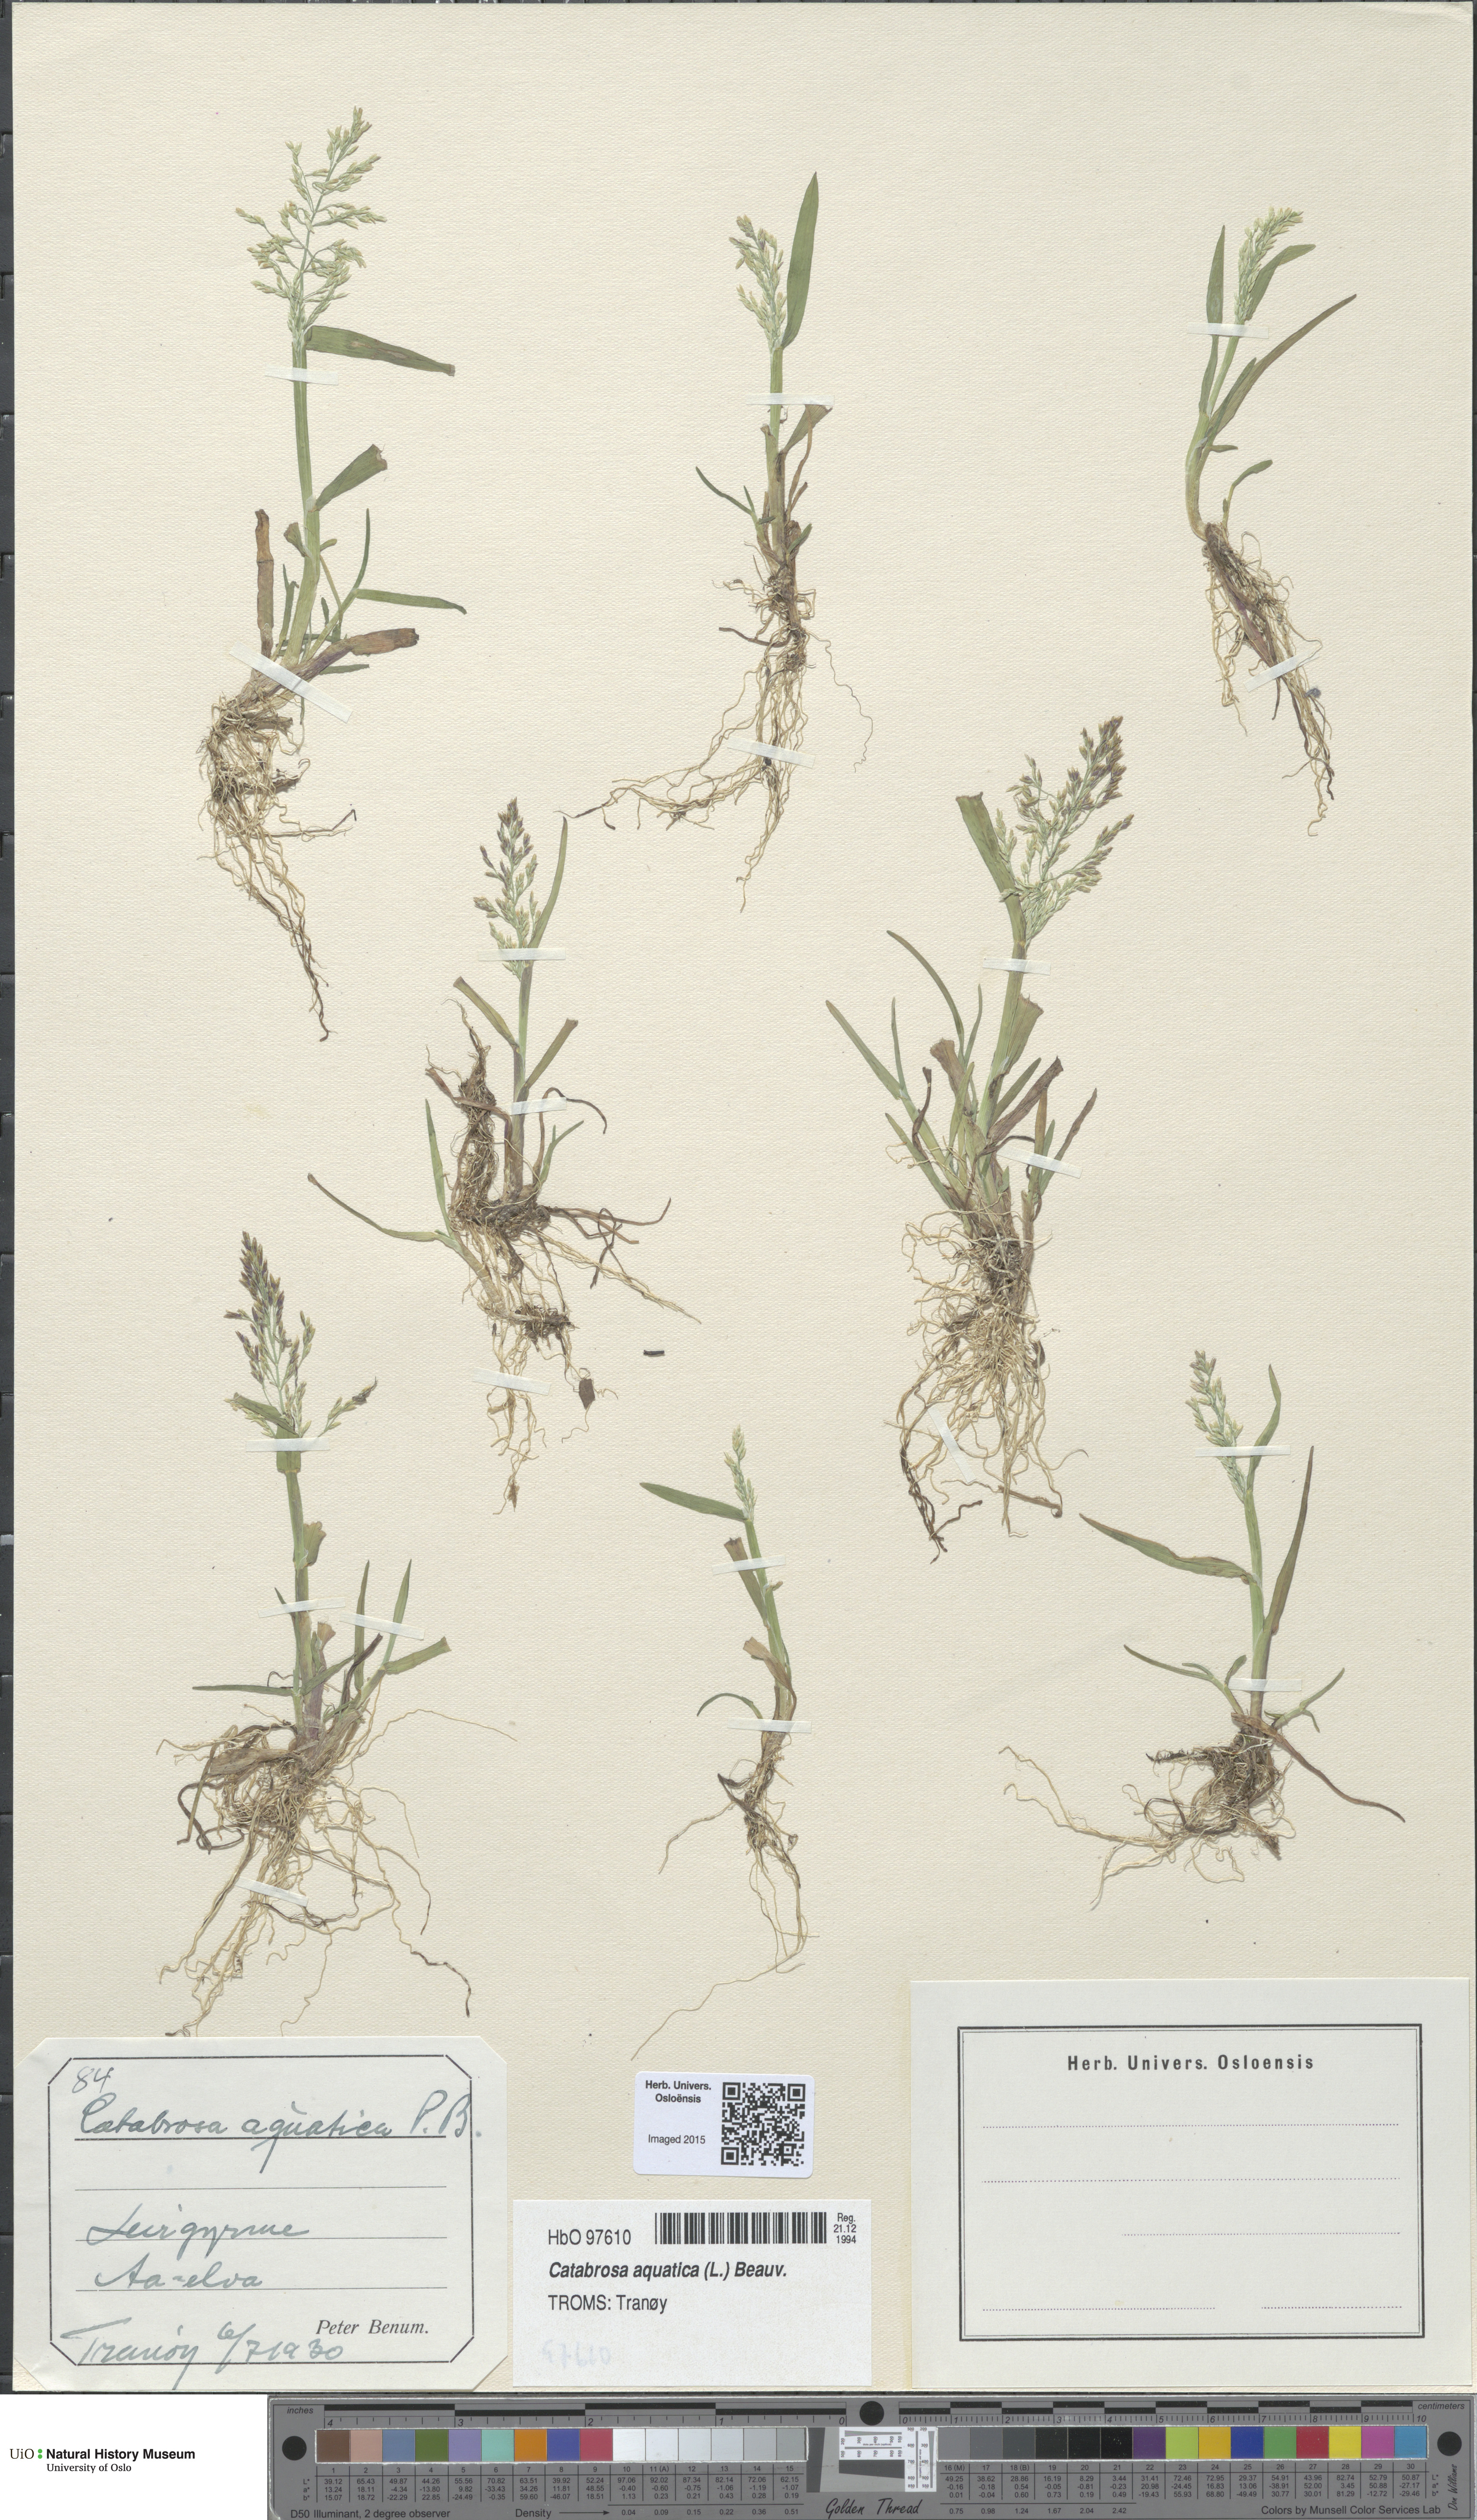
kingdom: Plantae
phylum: Tracheophyta
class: Liliopsida
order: Poales
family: Poaceae
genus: Catabrosa
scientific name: Catabrosa aquatica
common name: Whorl-grass
